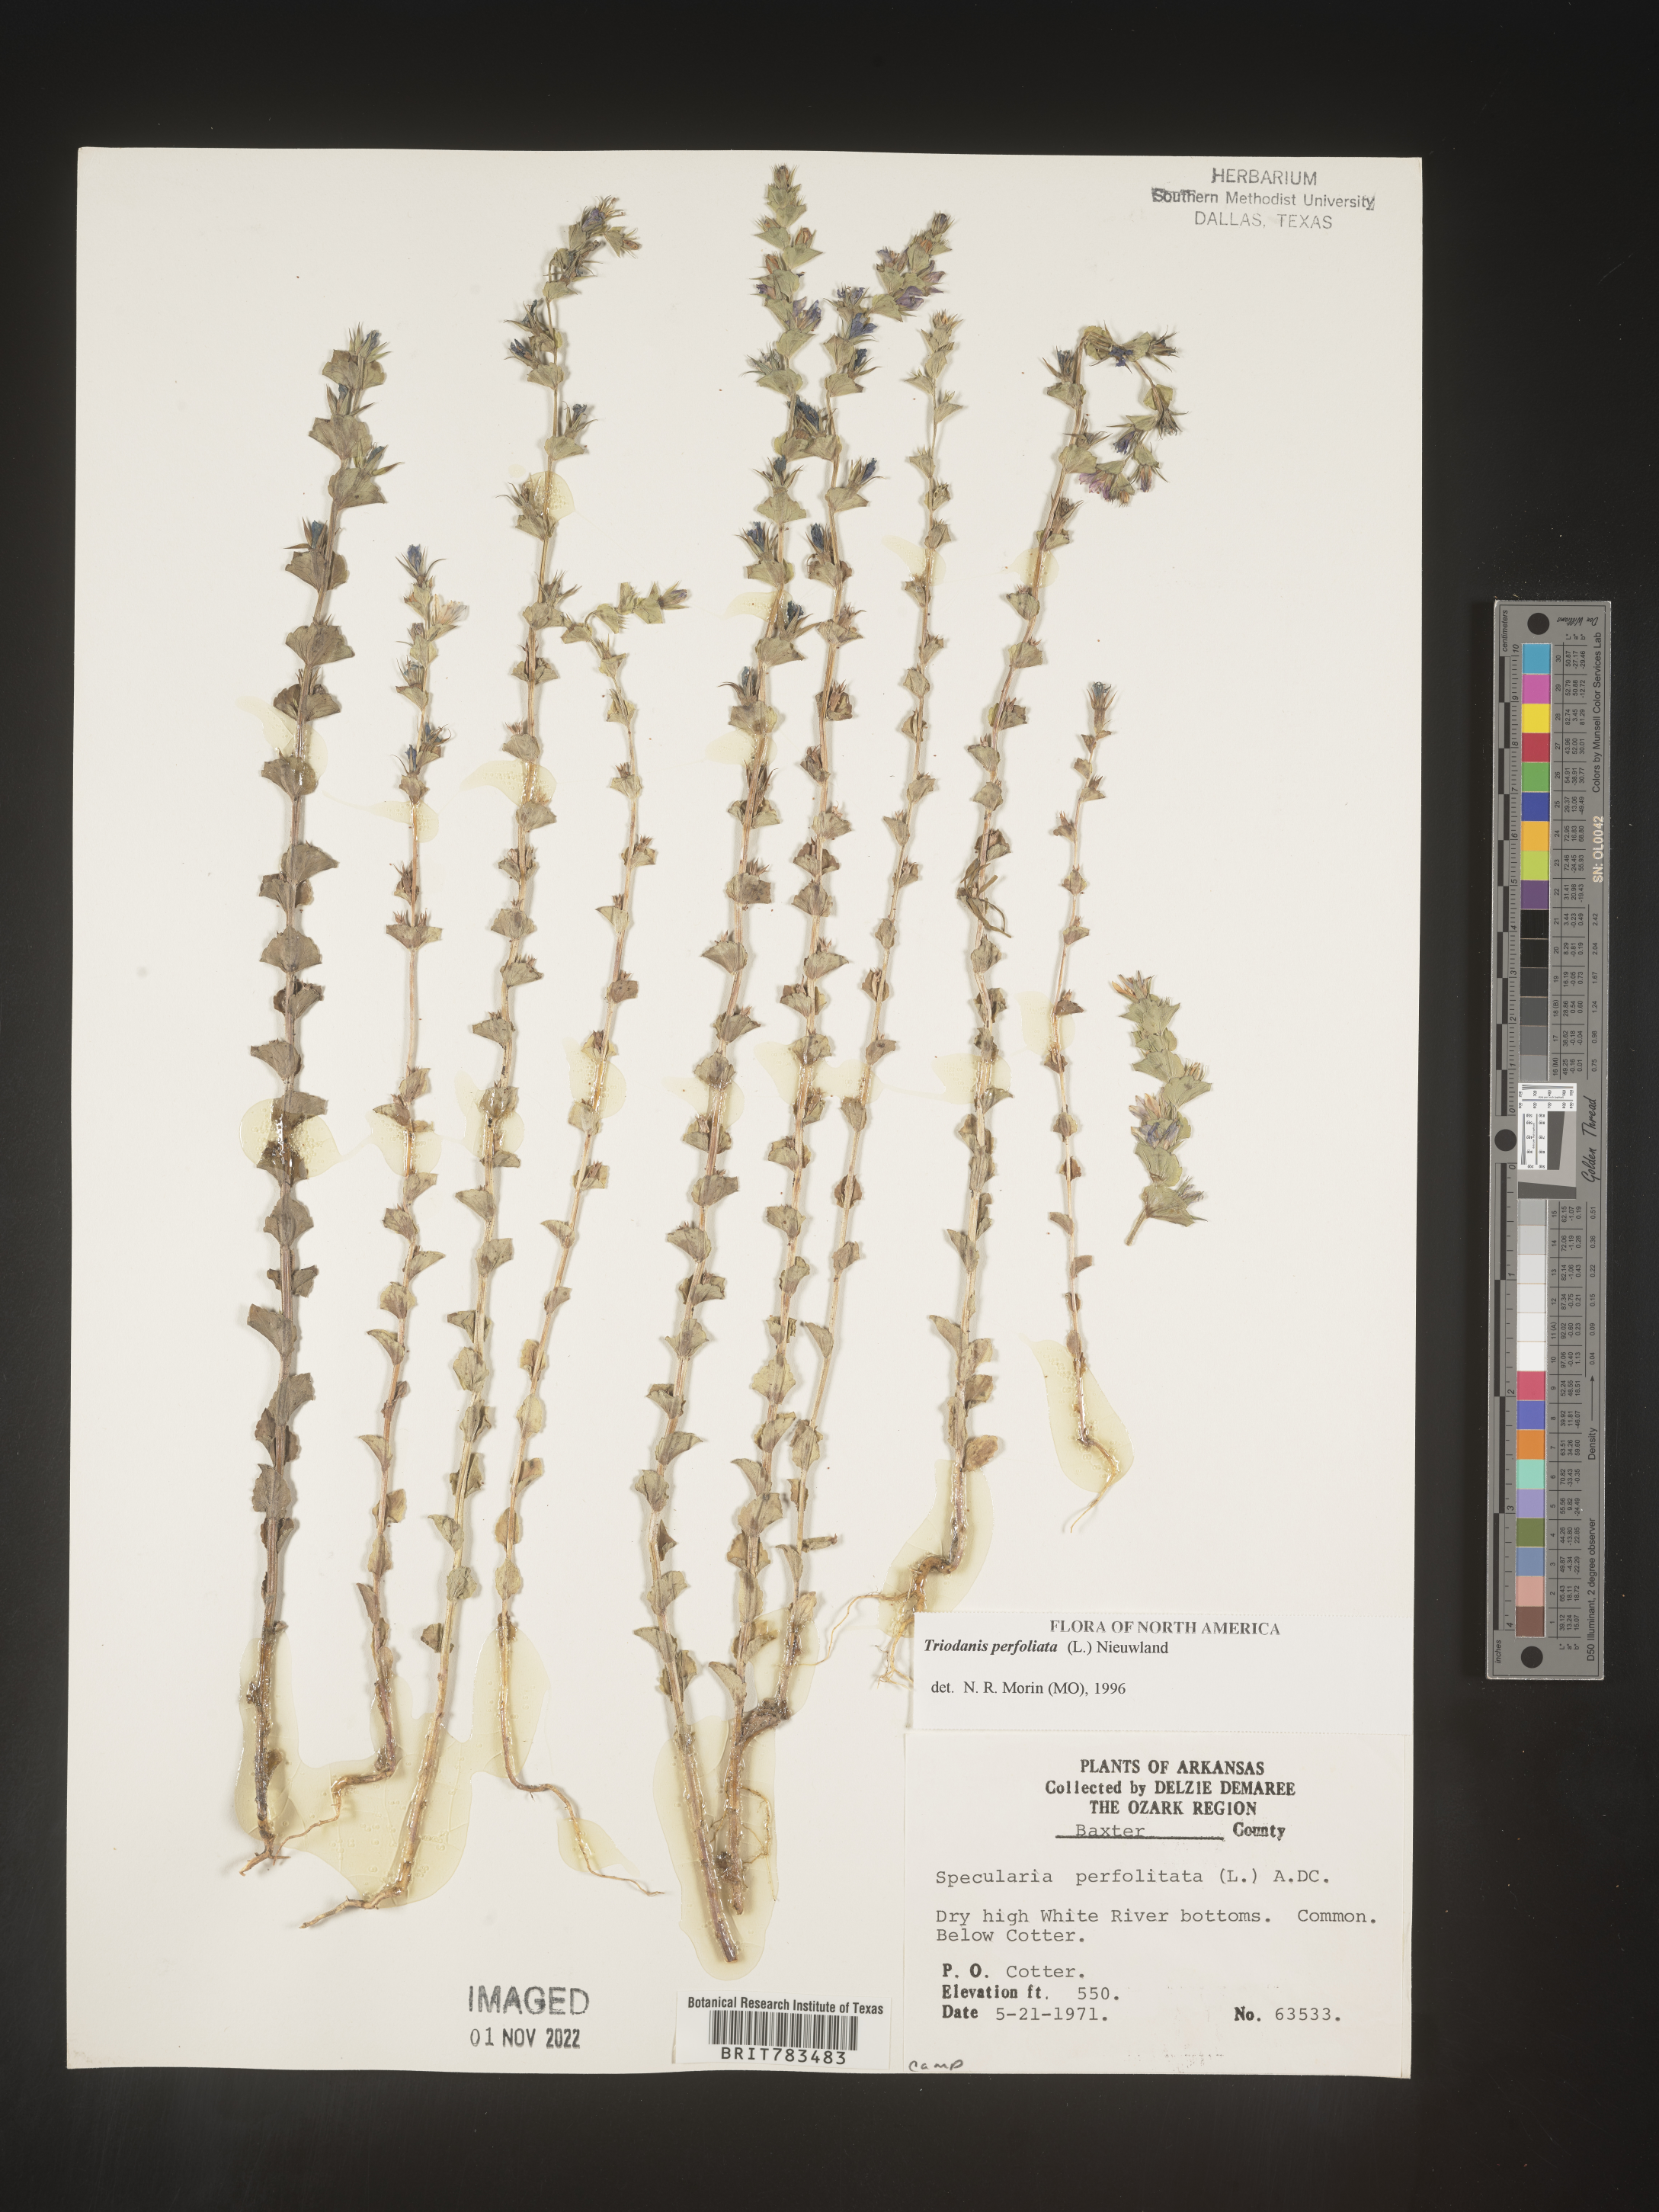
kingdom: Plantae
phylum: Tracheophyta
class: Magnoliopsida
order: Asterales
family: Campanulaceae
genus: Triodanis
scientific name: Triodanis perfoliata
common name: Clasping venus' looking-glass
